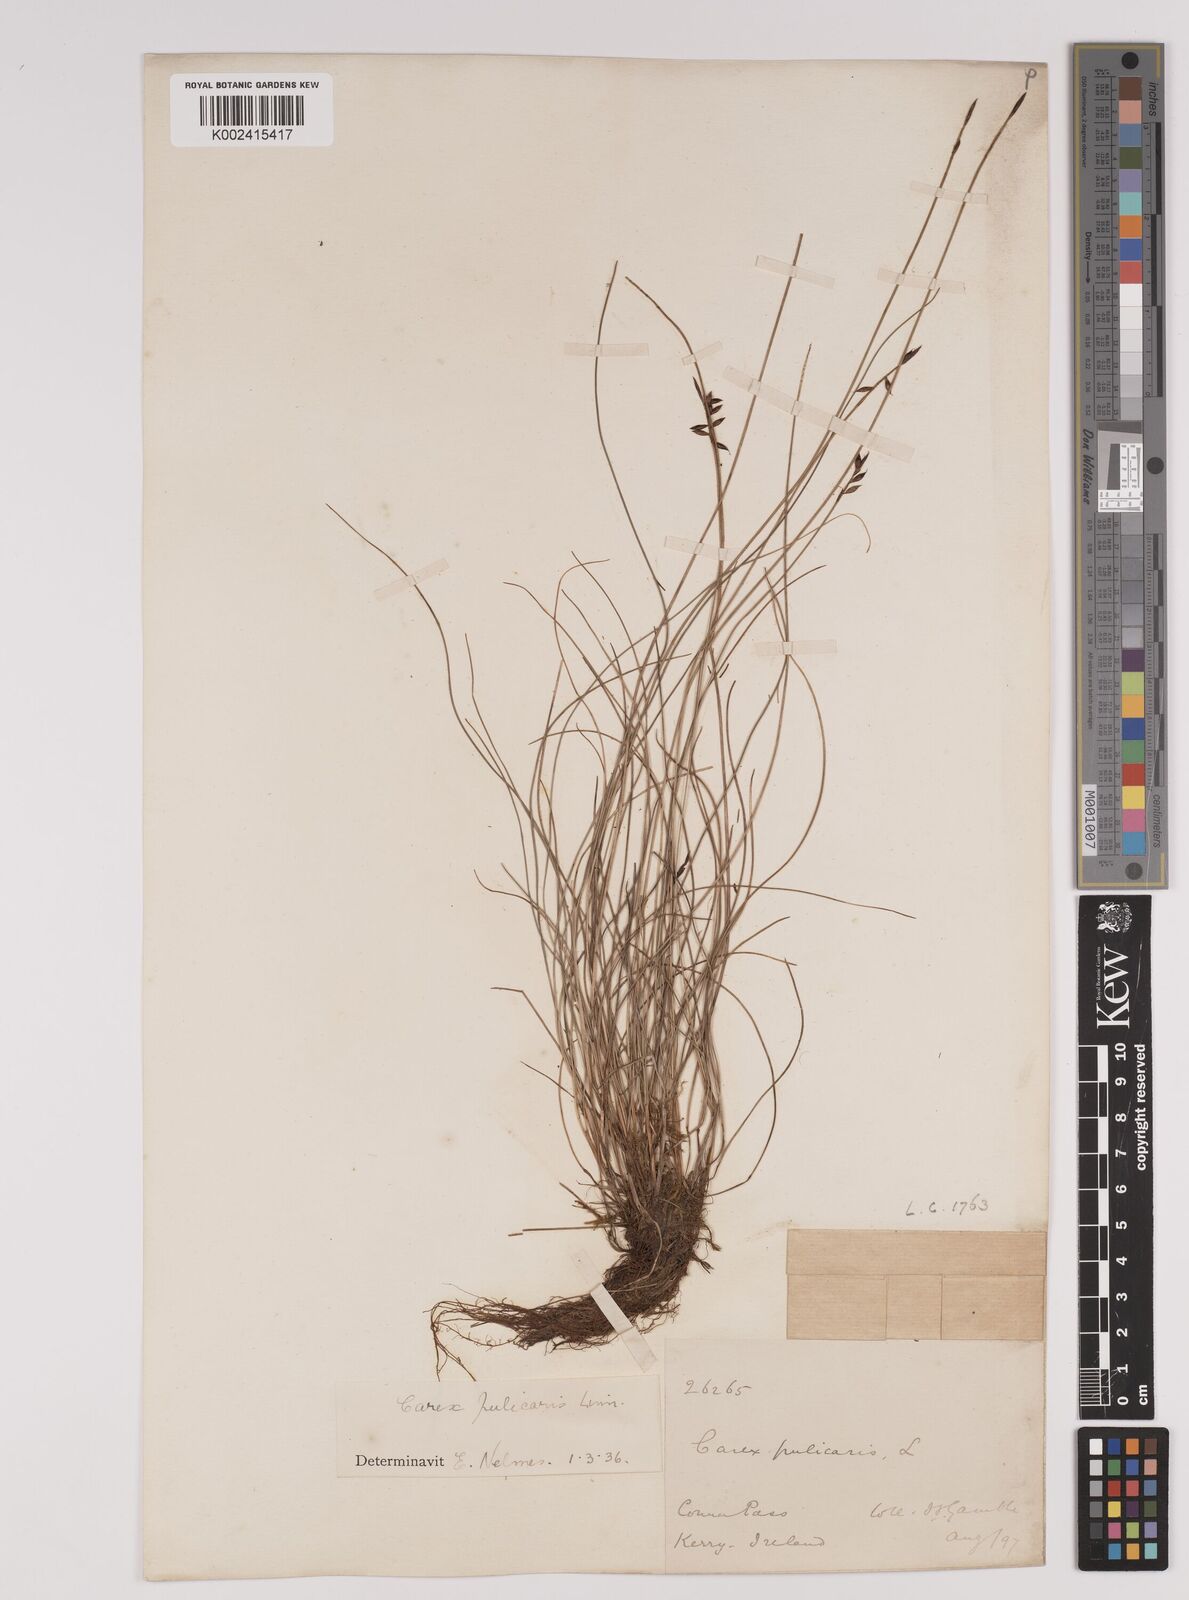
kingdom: Plantae
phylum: Tracheophyta
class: Liliopsida
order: Poales
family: Cyperaceae
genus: Carex
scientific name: Carex pulicaris
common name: Flea sedge
